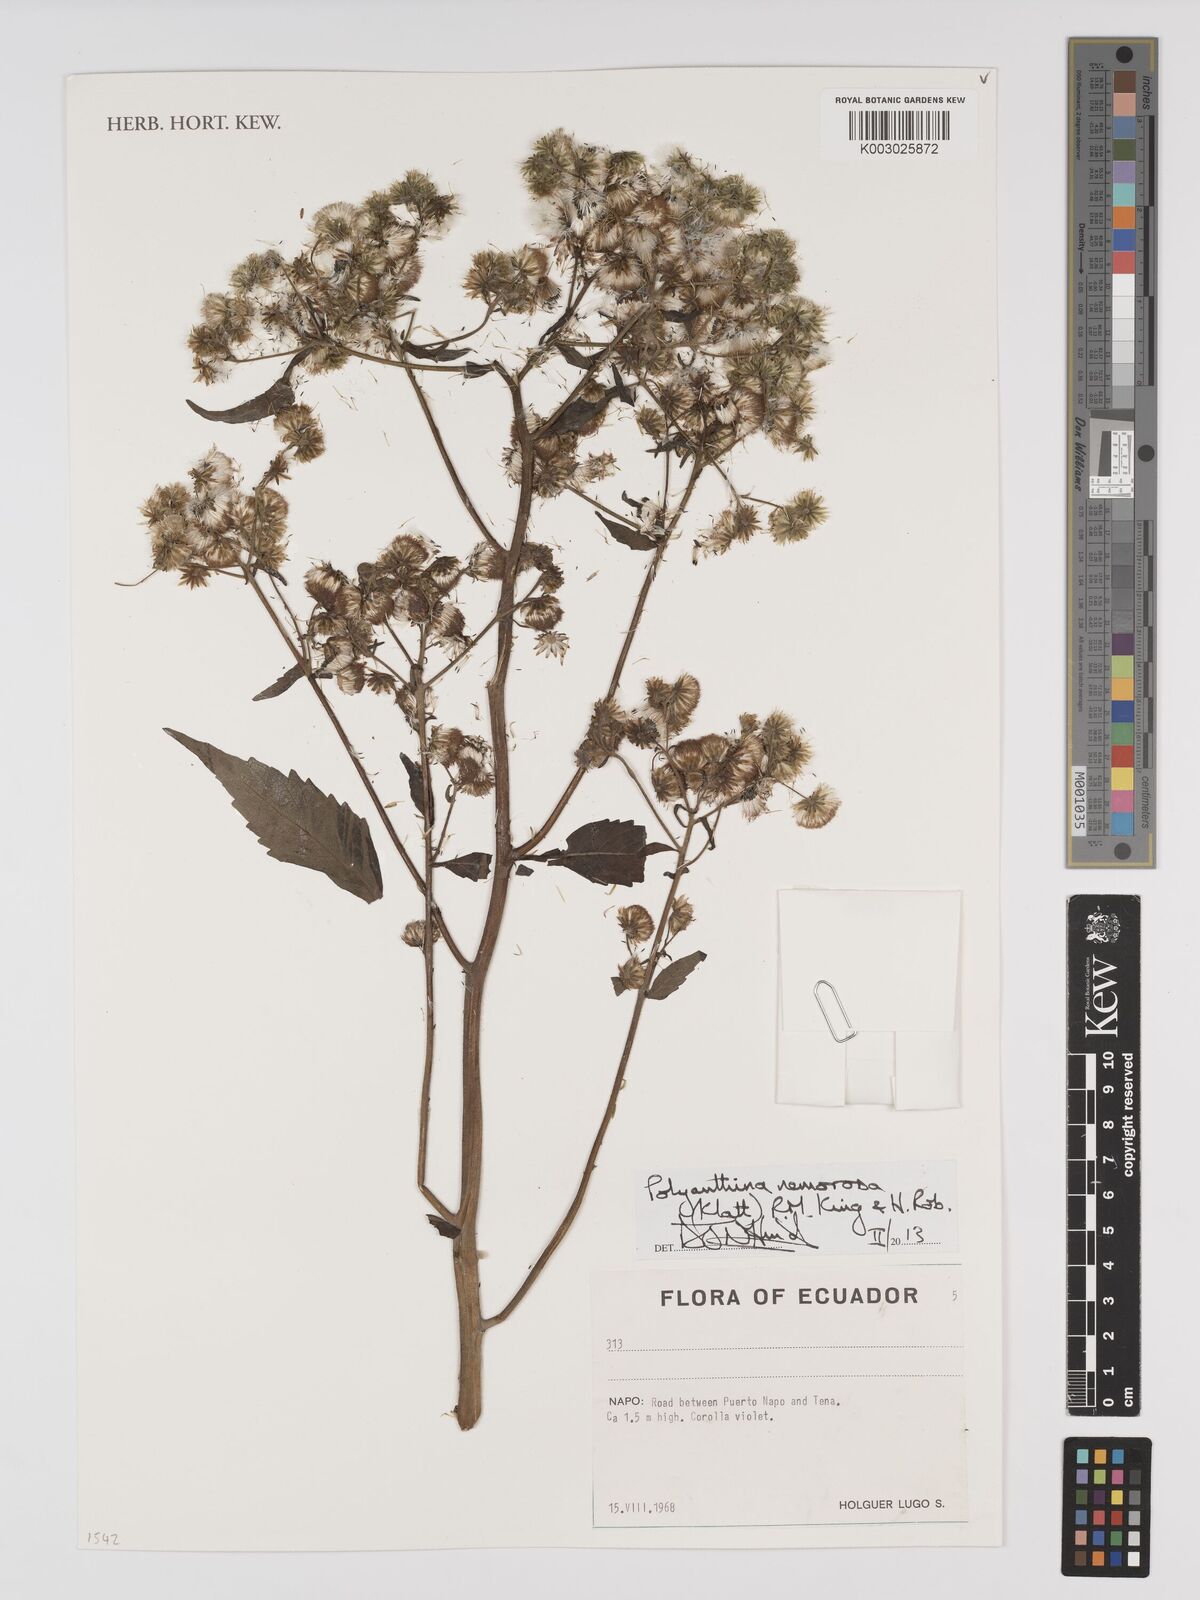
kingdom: Plantae
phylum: Tracheophyta
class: Magnoliopsida
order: Asterales
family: Asteraceae
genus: Polyanthina
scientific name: Polyanthina nemorosa
